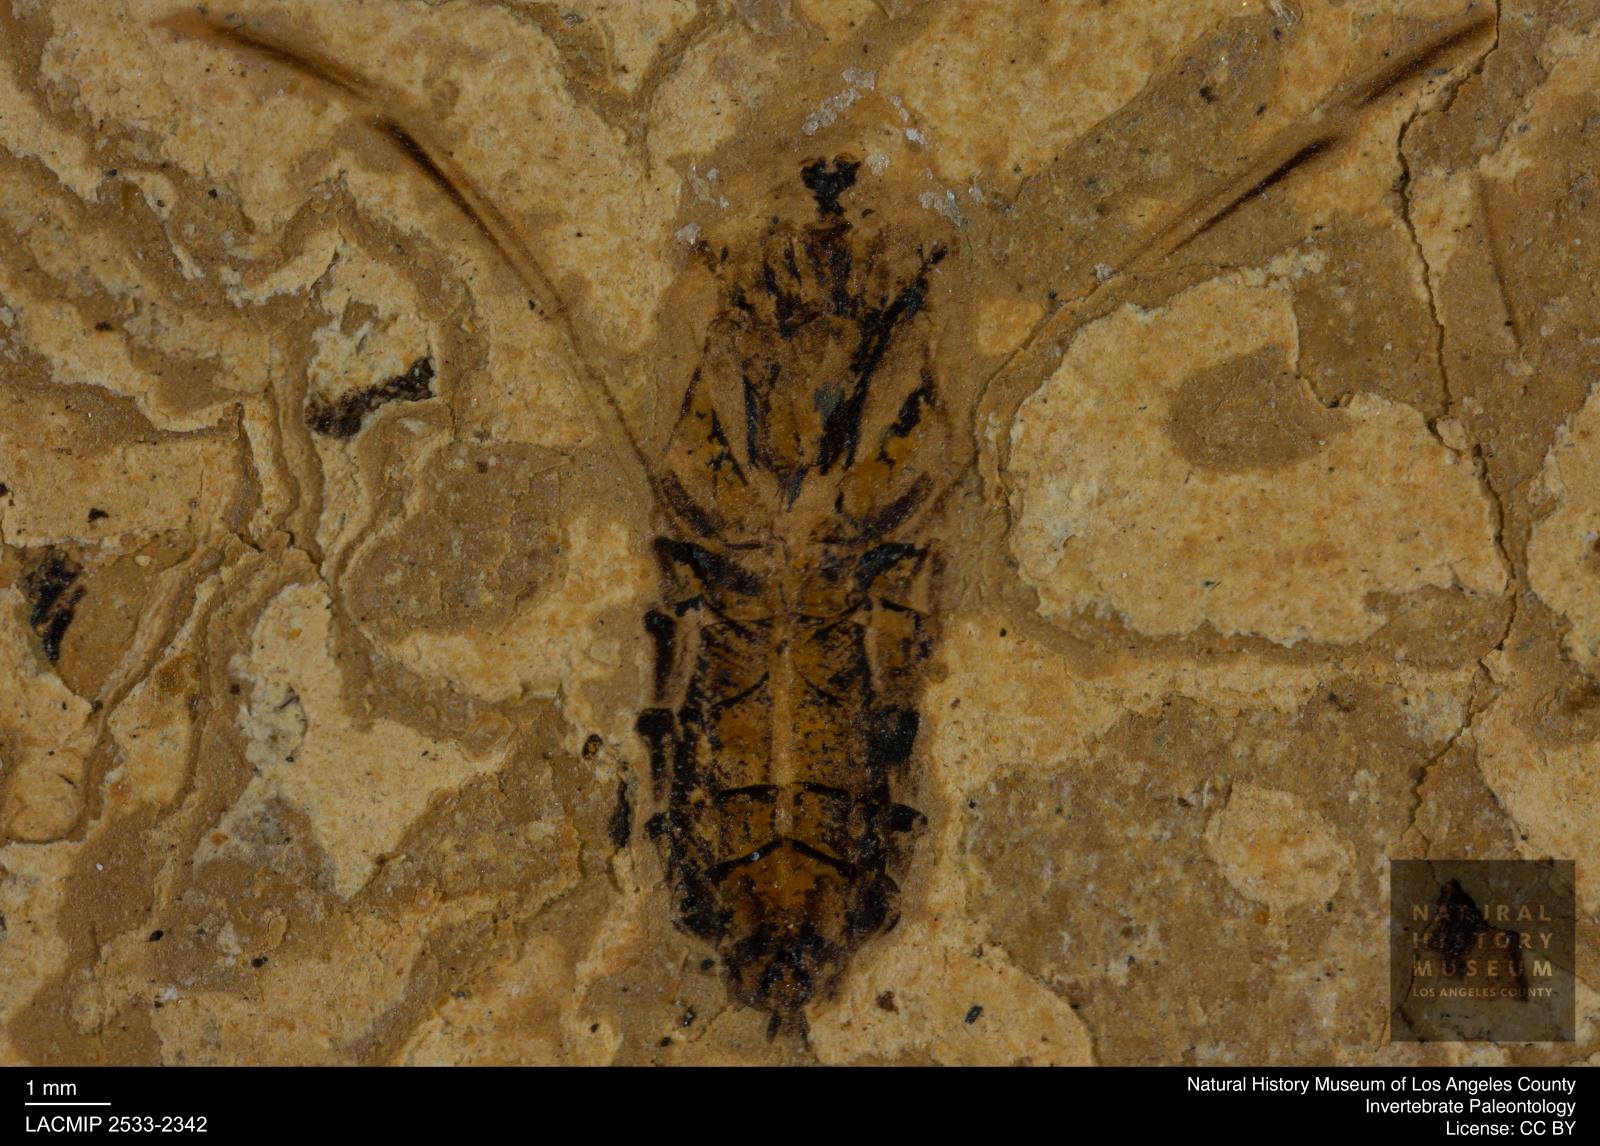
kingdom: Animalia
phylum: Arthropoda
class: Insecta
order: Hemiptera
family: Notonectidae
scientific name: Notonectidae
